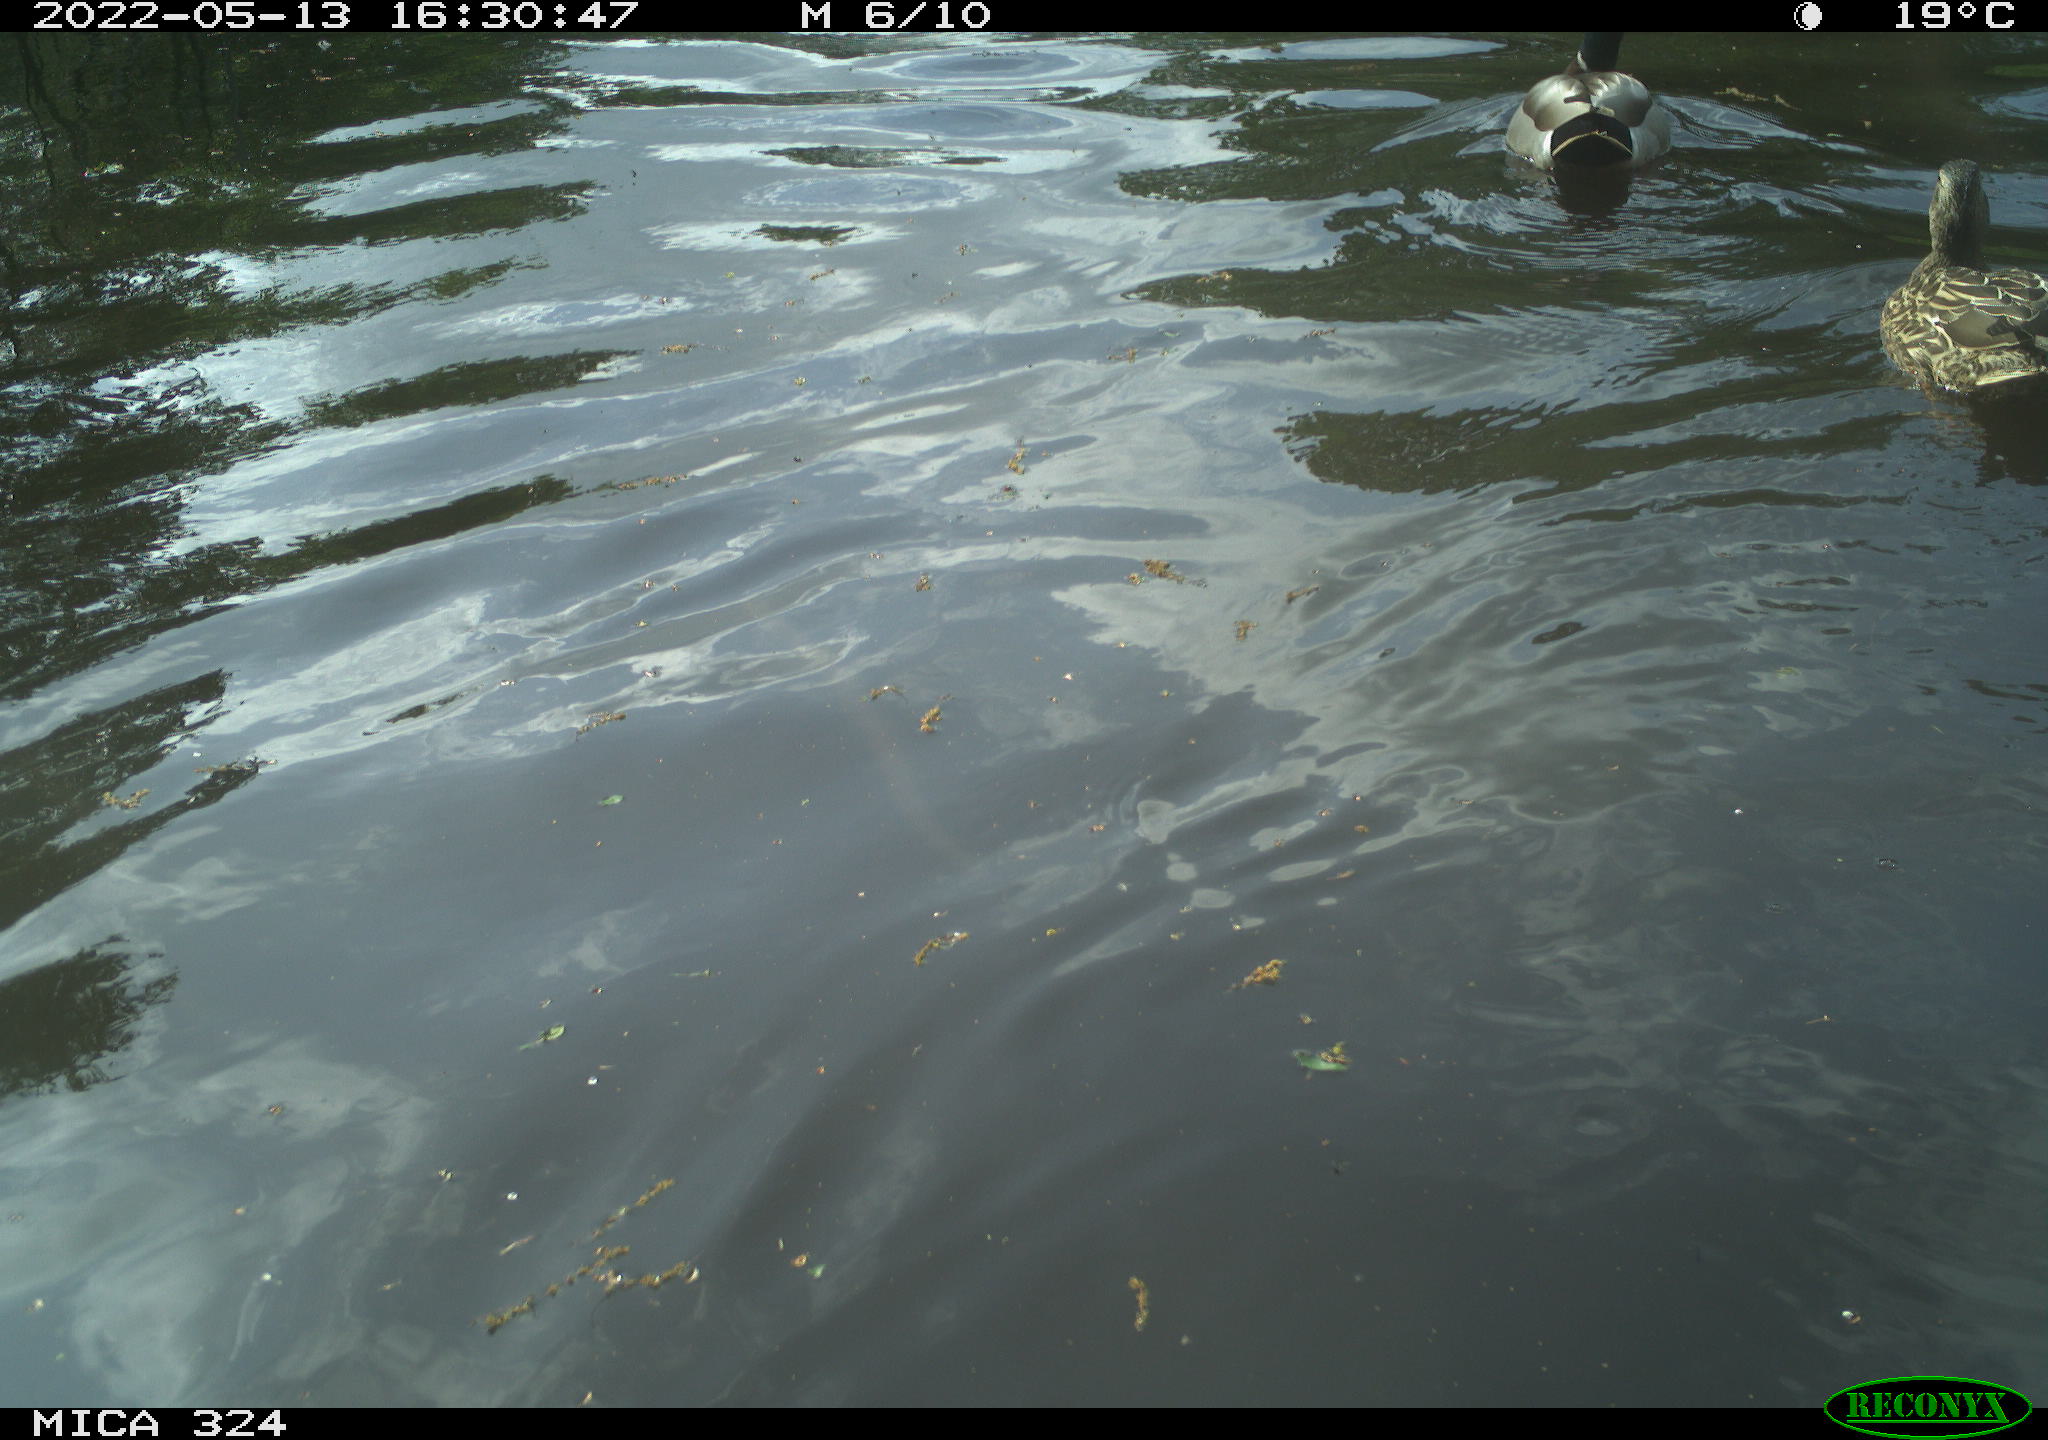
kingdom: Animalia
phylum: Chordata
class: Aves
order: Anseriformes
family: Anatidae
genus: Anas
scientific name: Anas platyrhynchos
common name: Mallard
